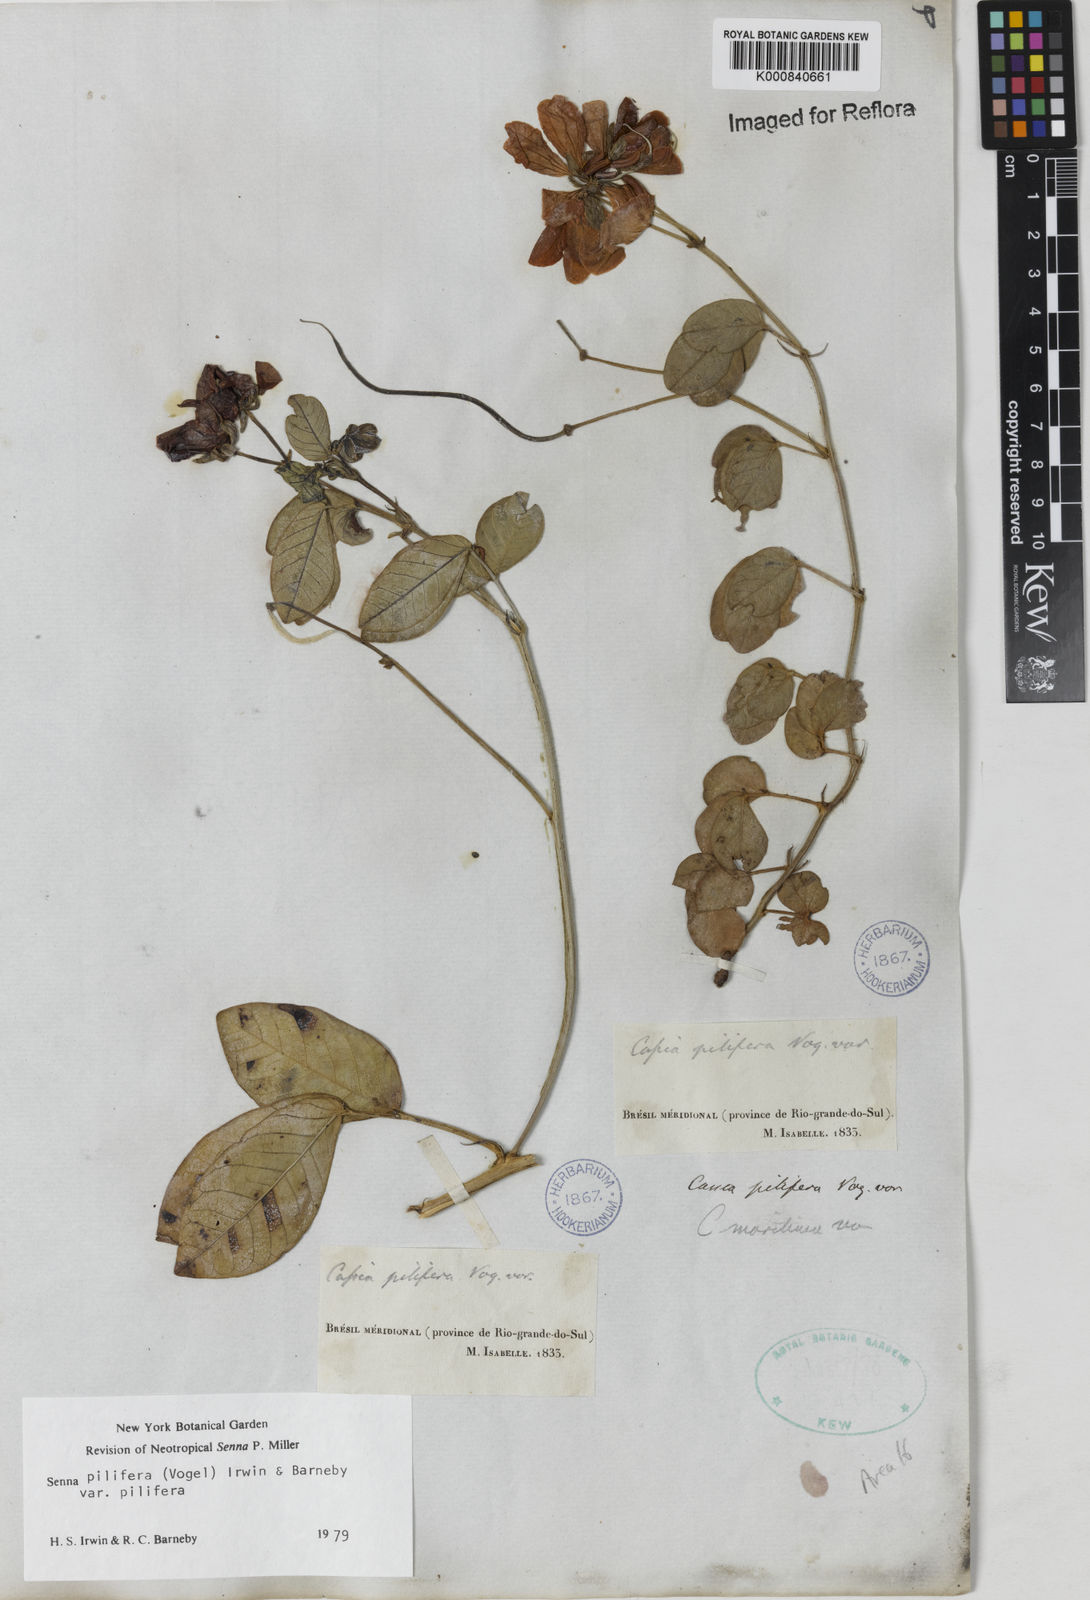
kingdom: Plantae
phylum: Tracheophyta
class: Magnoliopsida
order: Fabales
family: Fabaceae
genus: Senna
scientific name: Senna pilifera
